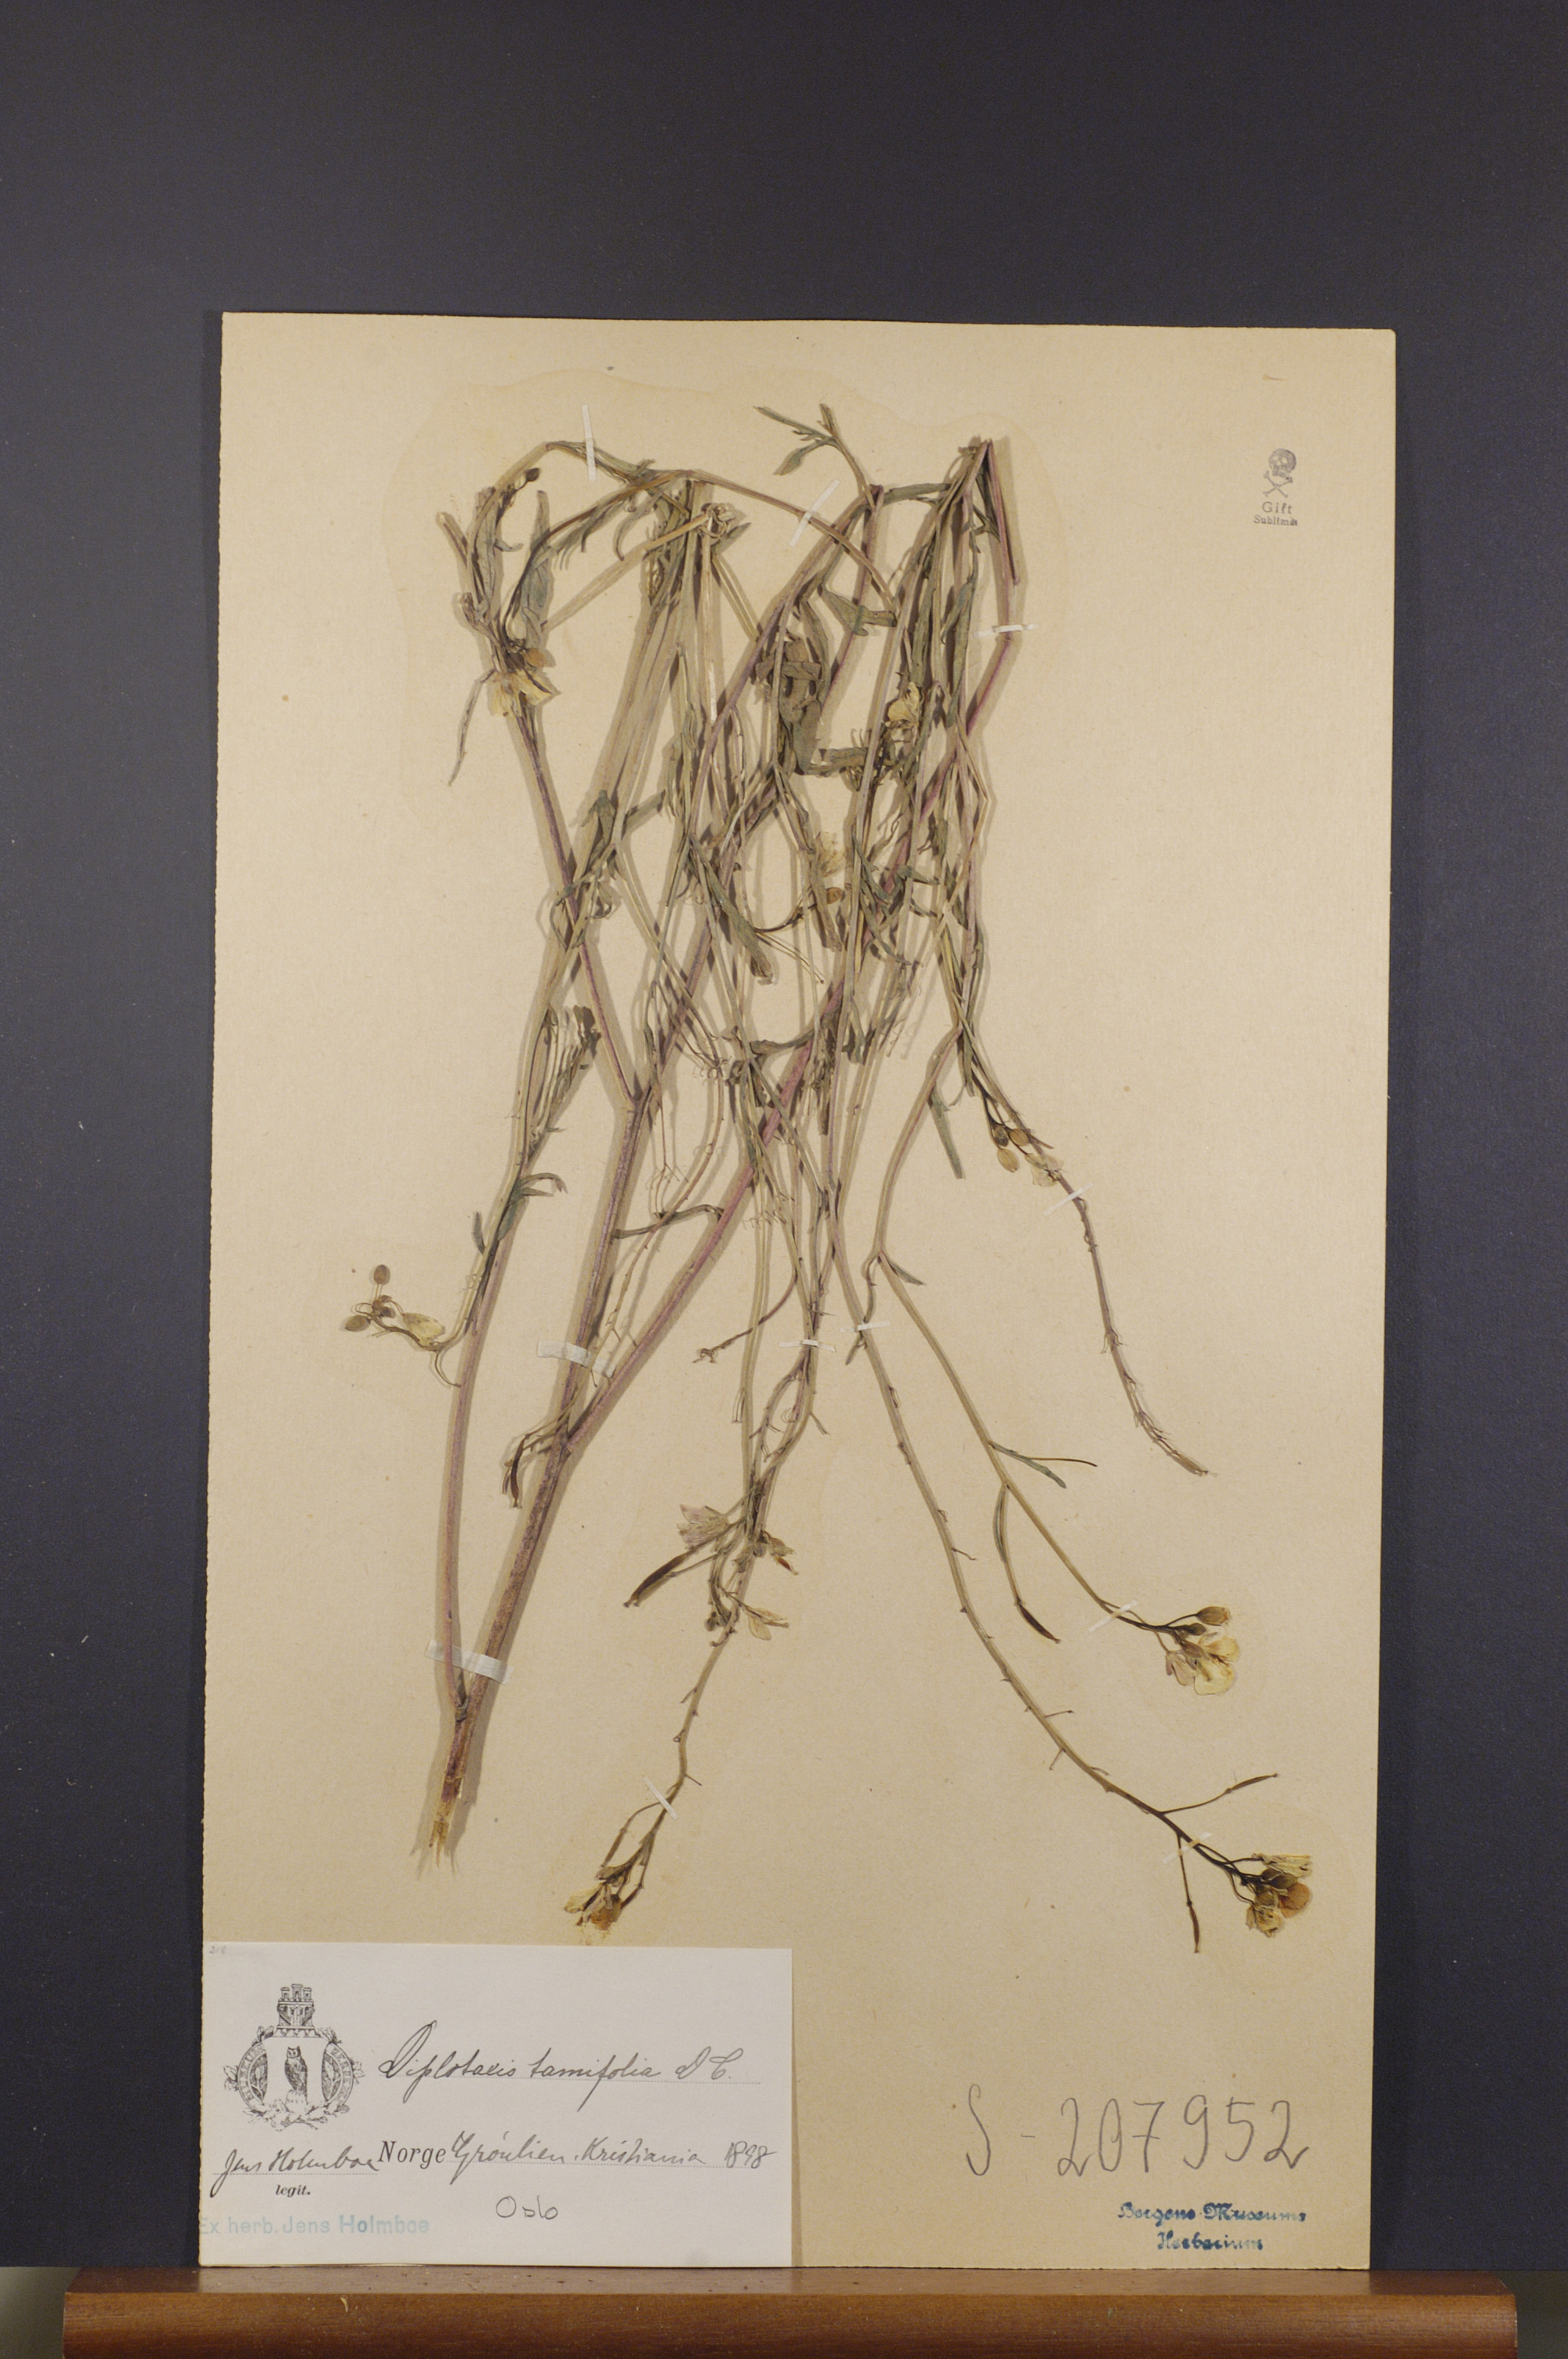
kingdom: Plantae
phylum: Tracheophyta
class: Magnoliopsida
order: Brassicales
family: Brassicaceae
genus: Diplotaxis
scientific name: Diplotaxis tenuifolia
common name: Perennial wall-rocket
